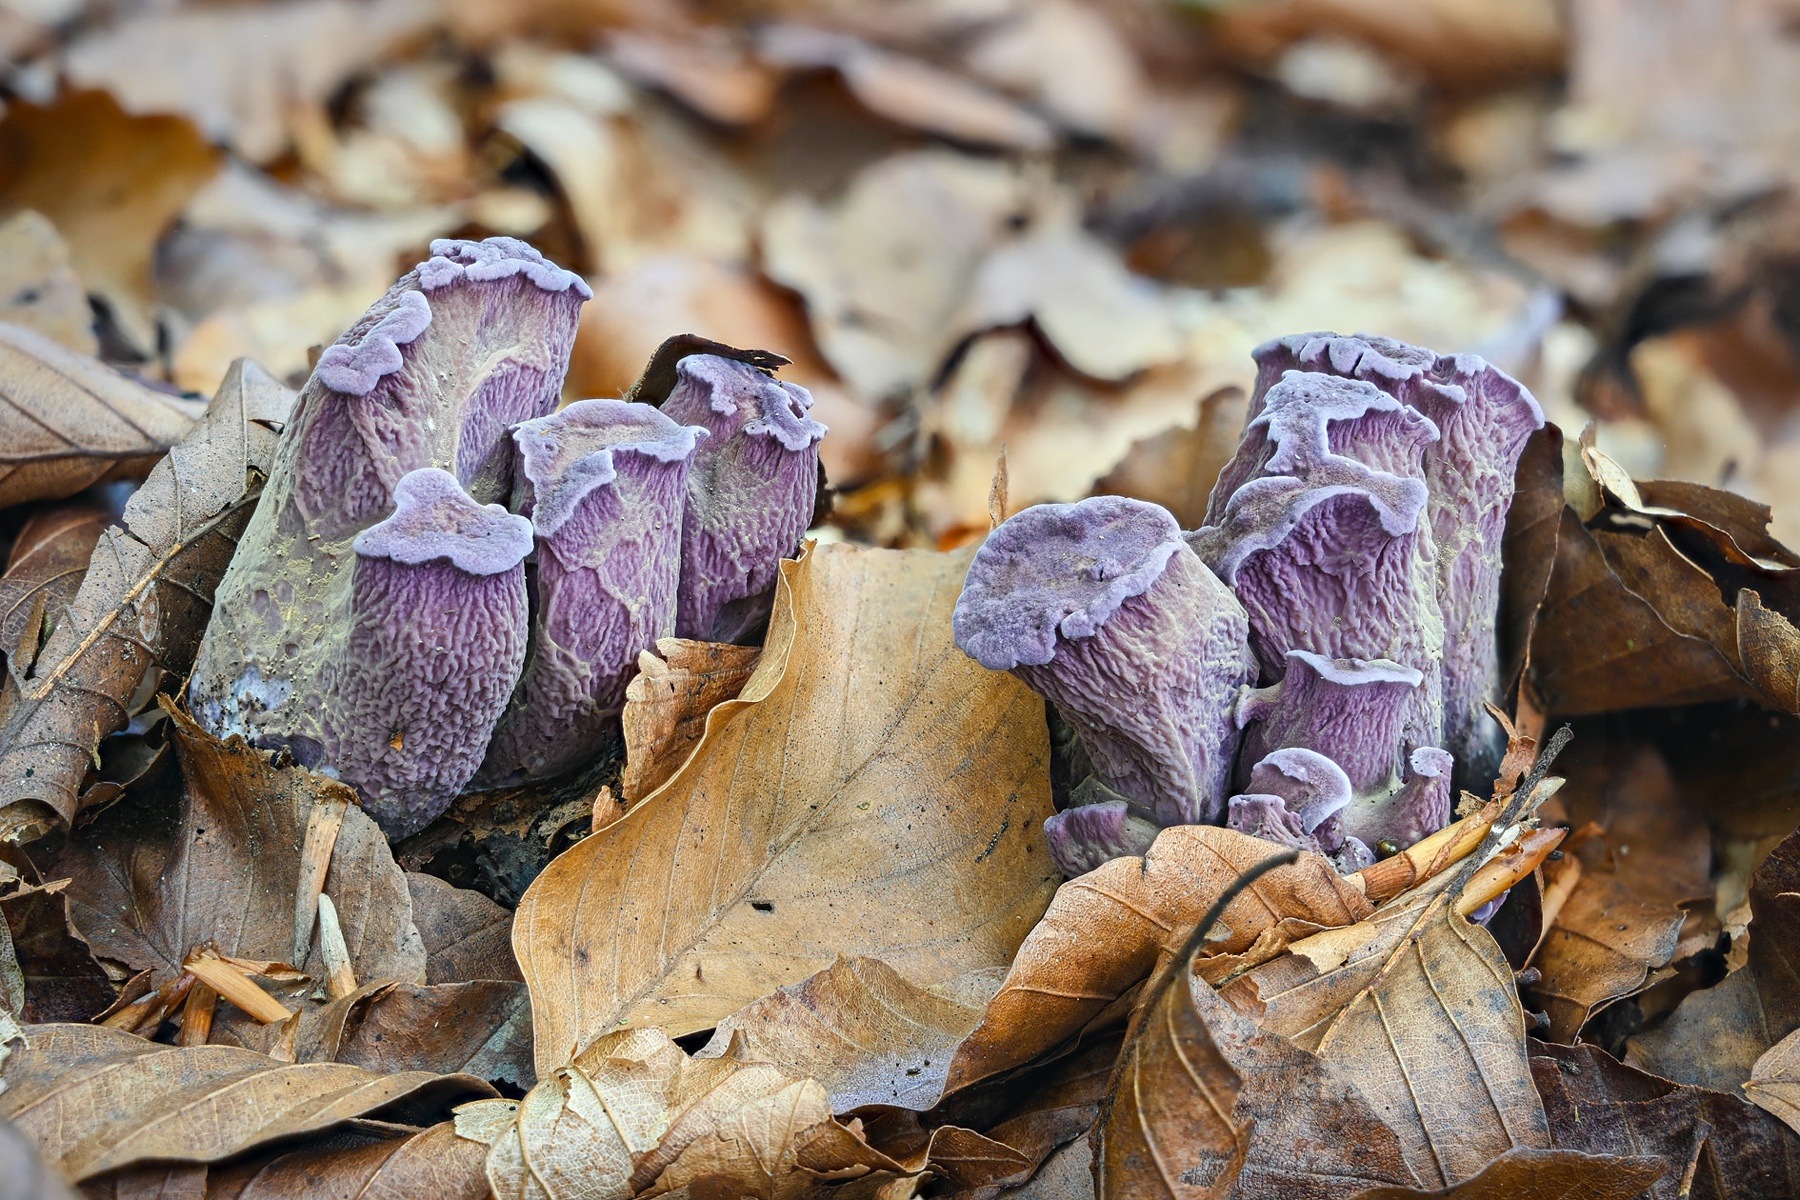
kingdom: Fungi
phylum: Basidiomycota
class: Agaricomycetes
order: Gomphales
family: Gomphaceae
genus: Gomphus
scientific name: Gomphus clavatus
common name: køllekantarel
